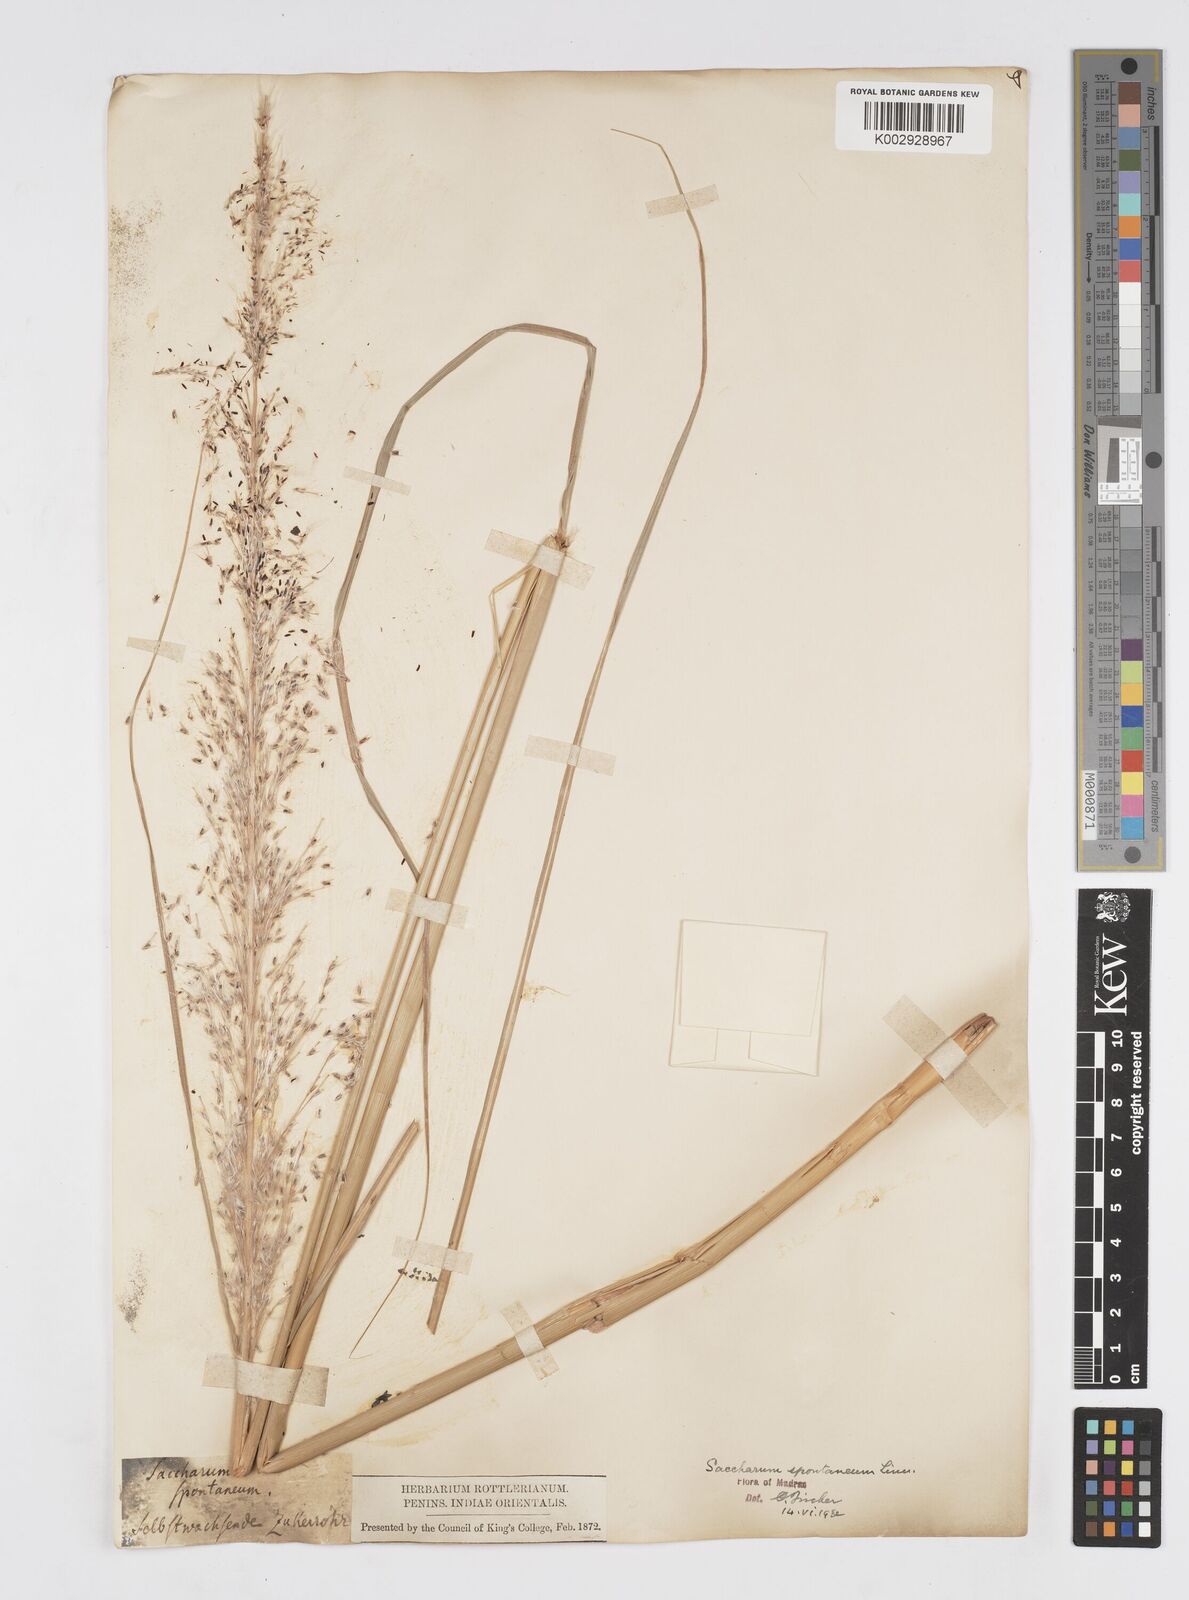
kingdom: Plantae
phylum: Tracheophyta
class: Liliopsida
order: Poales
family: Poaceae
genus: Saccharum
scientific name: Saccharum spontaneum
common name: Wild sugarcane
